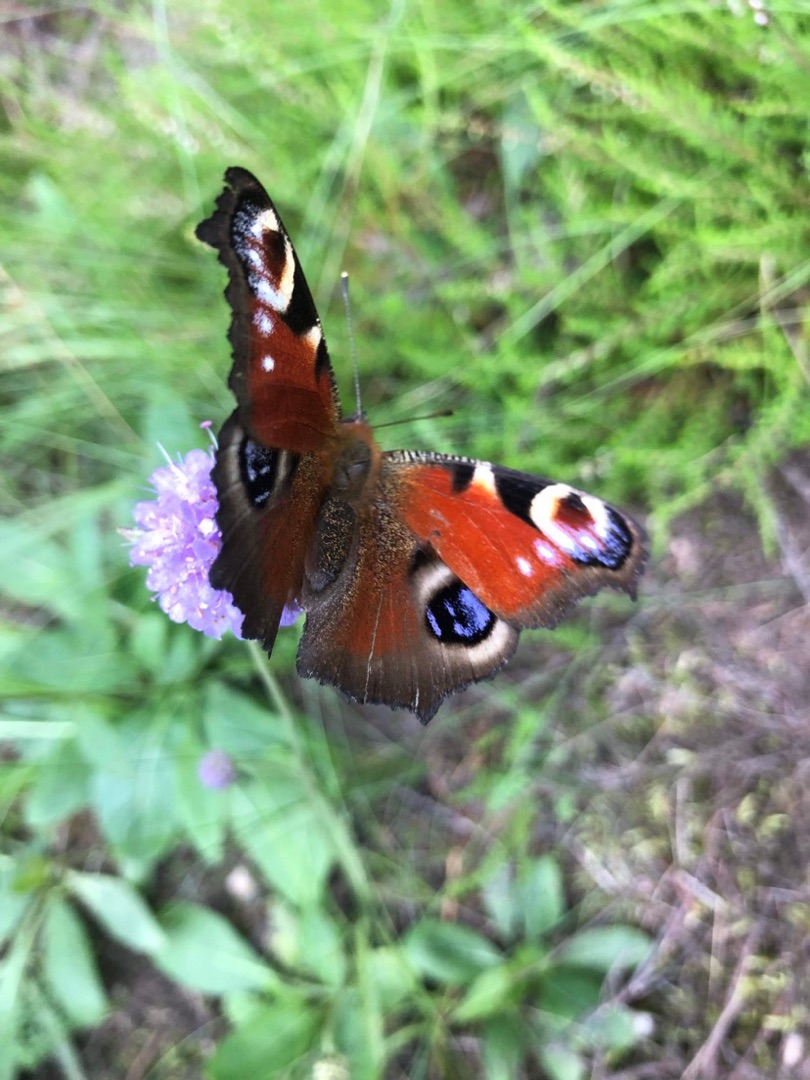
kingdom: Animalia
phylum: Arthropoda
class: Insecta
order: Lepidoptera
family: Nymphalidae
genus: Aglais
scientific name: Aglais io
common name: Dagpåfugleøje
